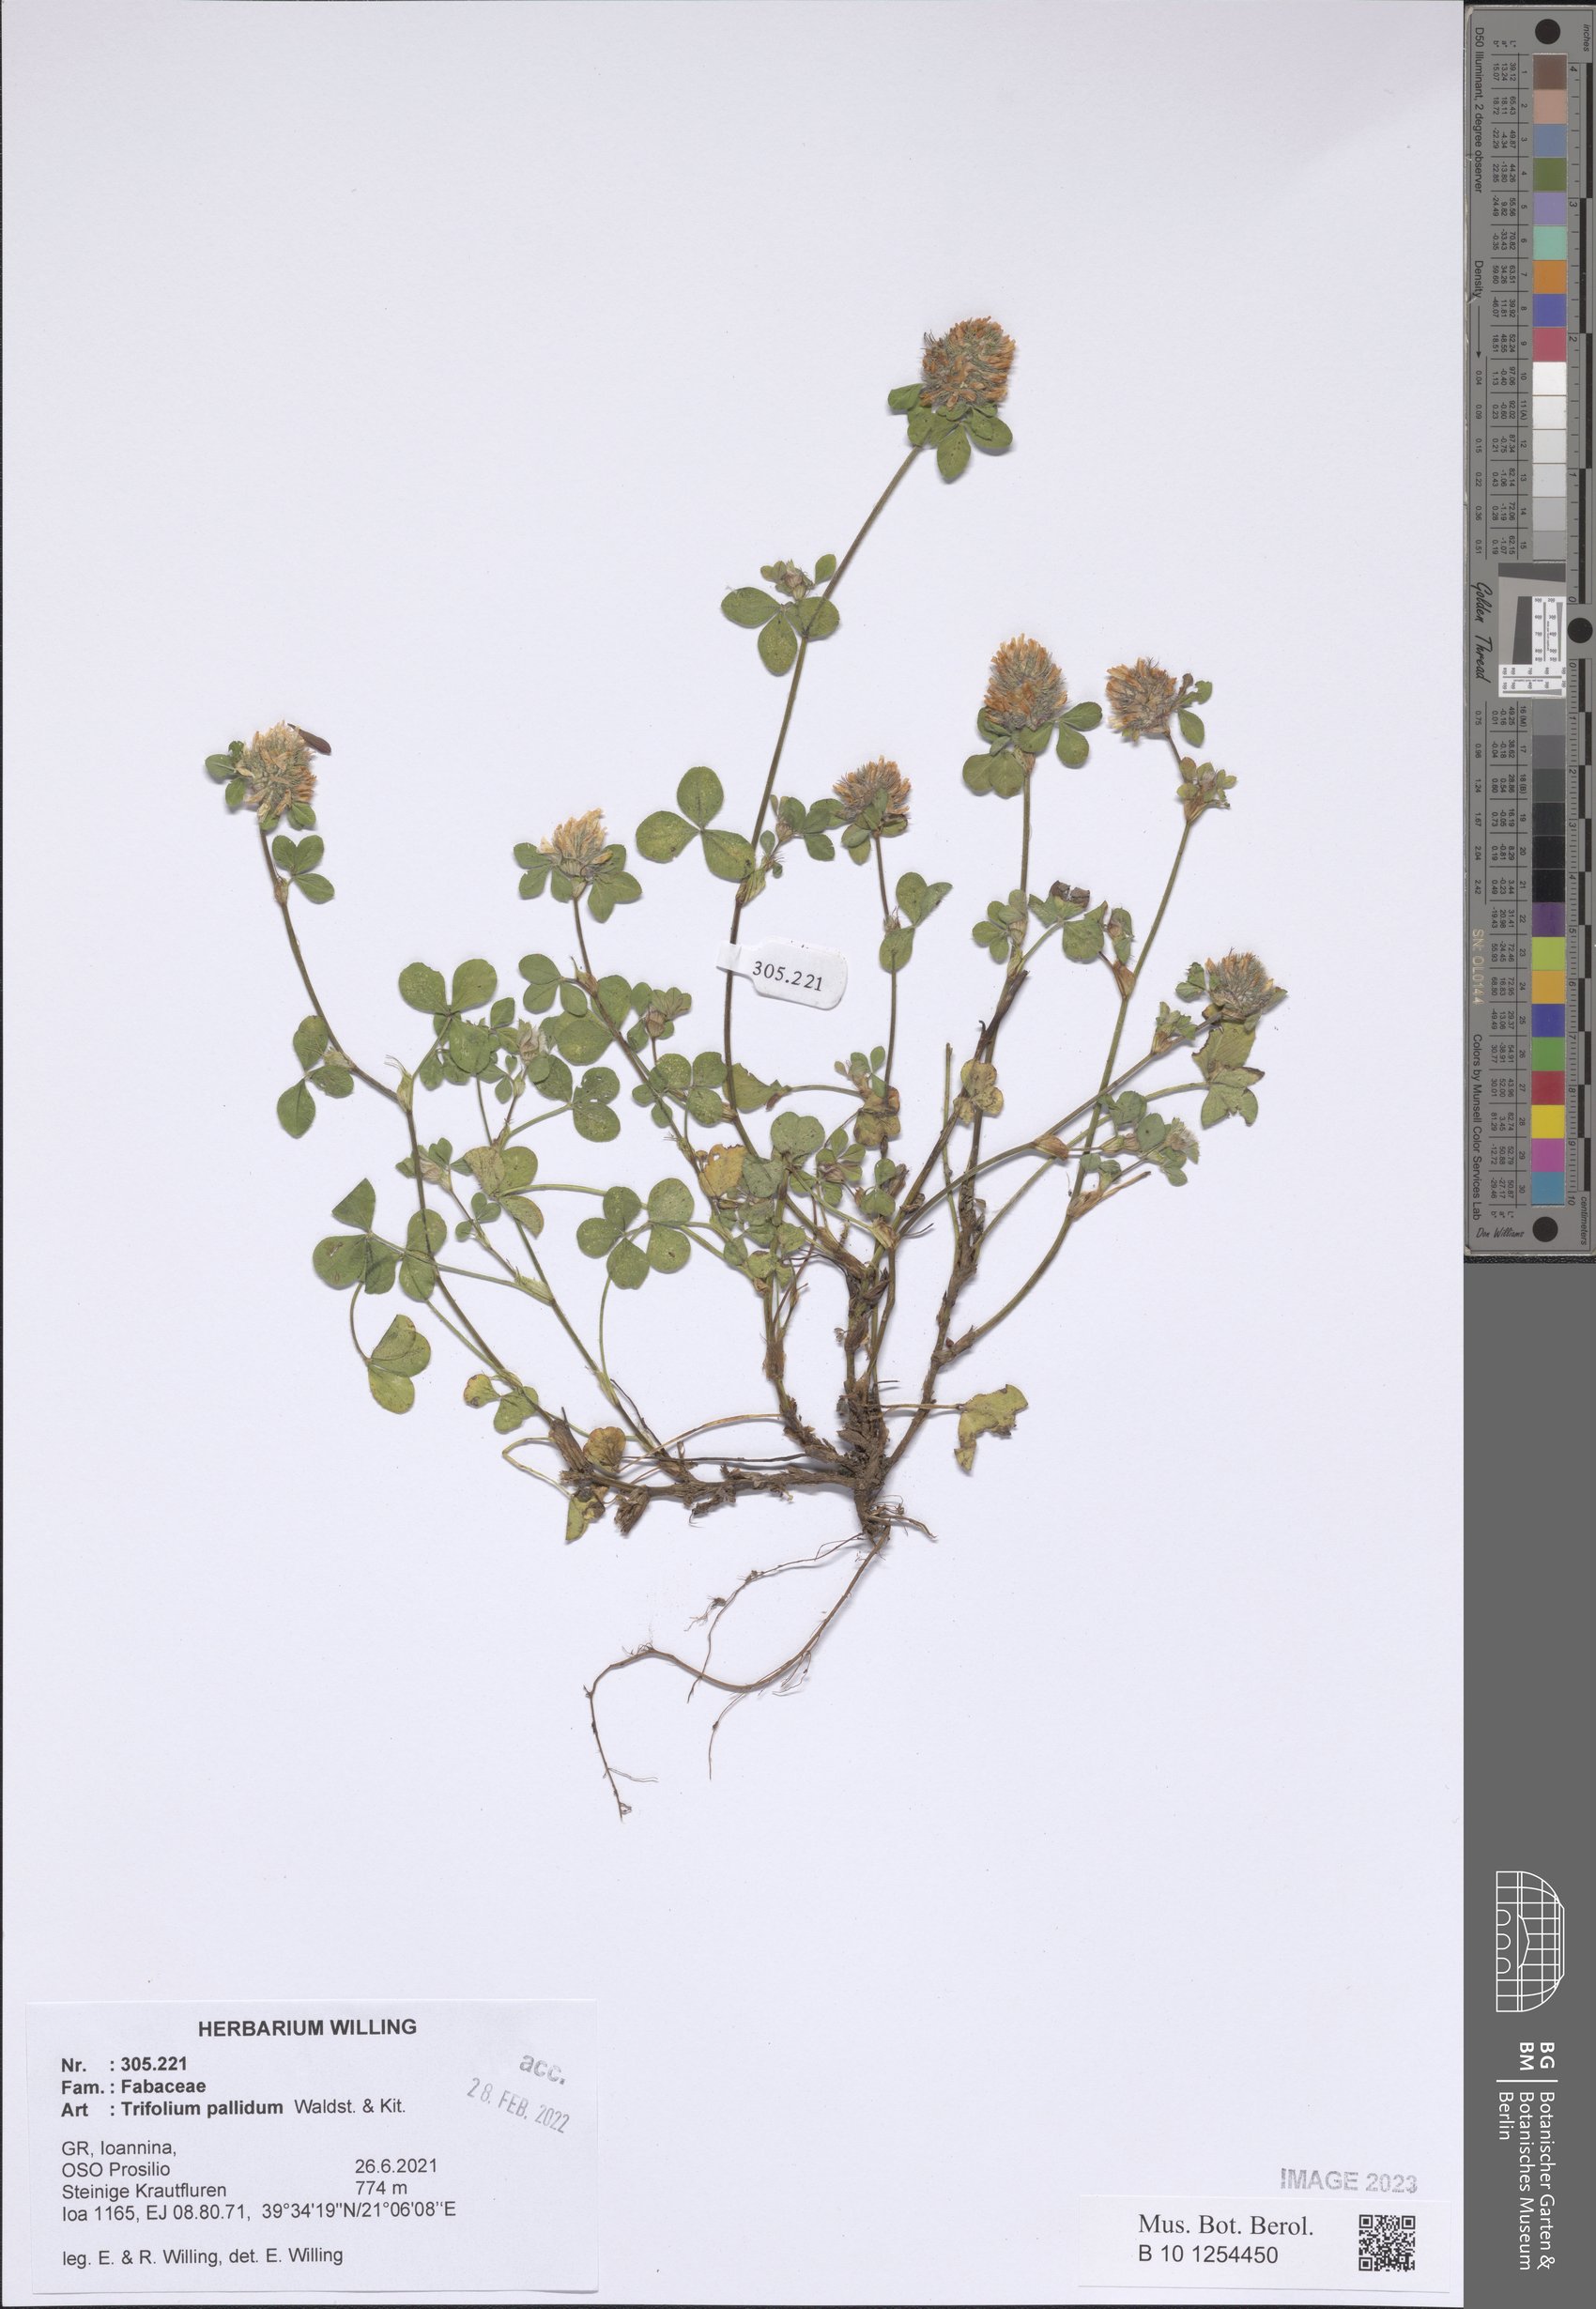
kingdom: Plantae
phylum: Tracheophyta
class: Magnoliopsida
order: Fabales
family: Fabaceae
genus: Trifolium
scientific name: Trifolium pallidum
